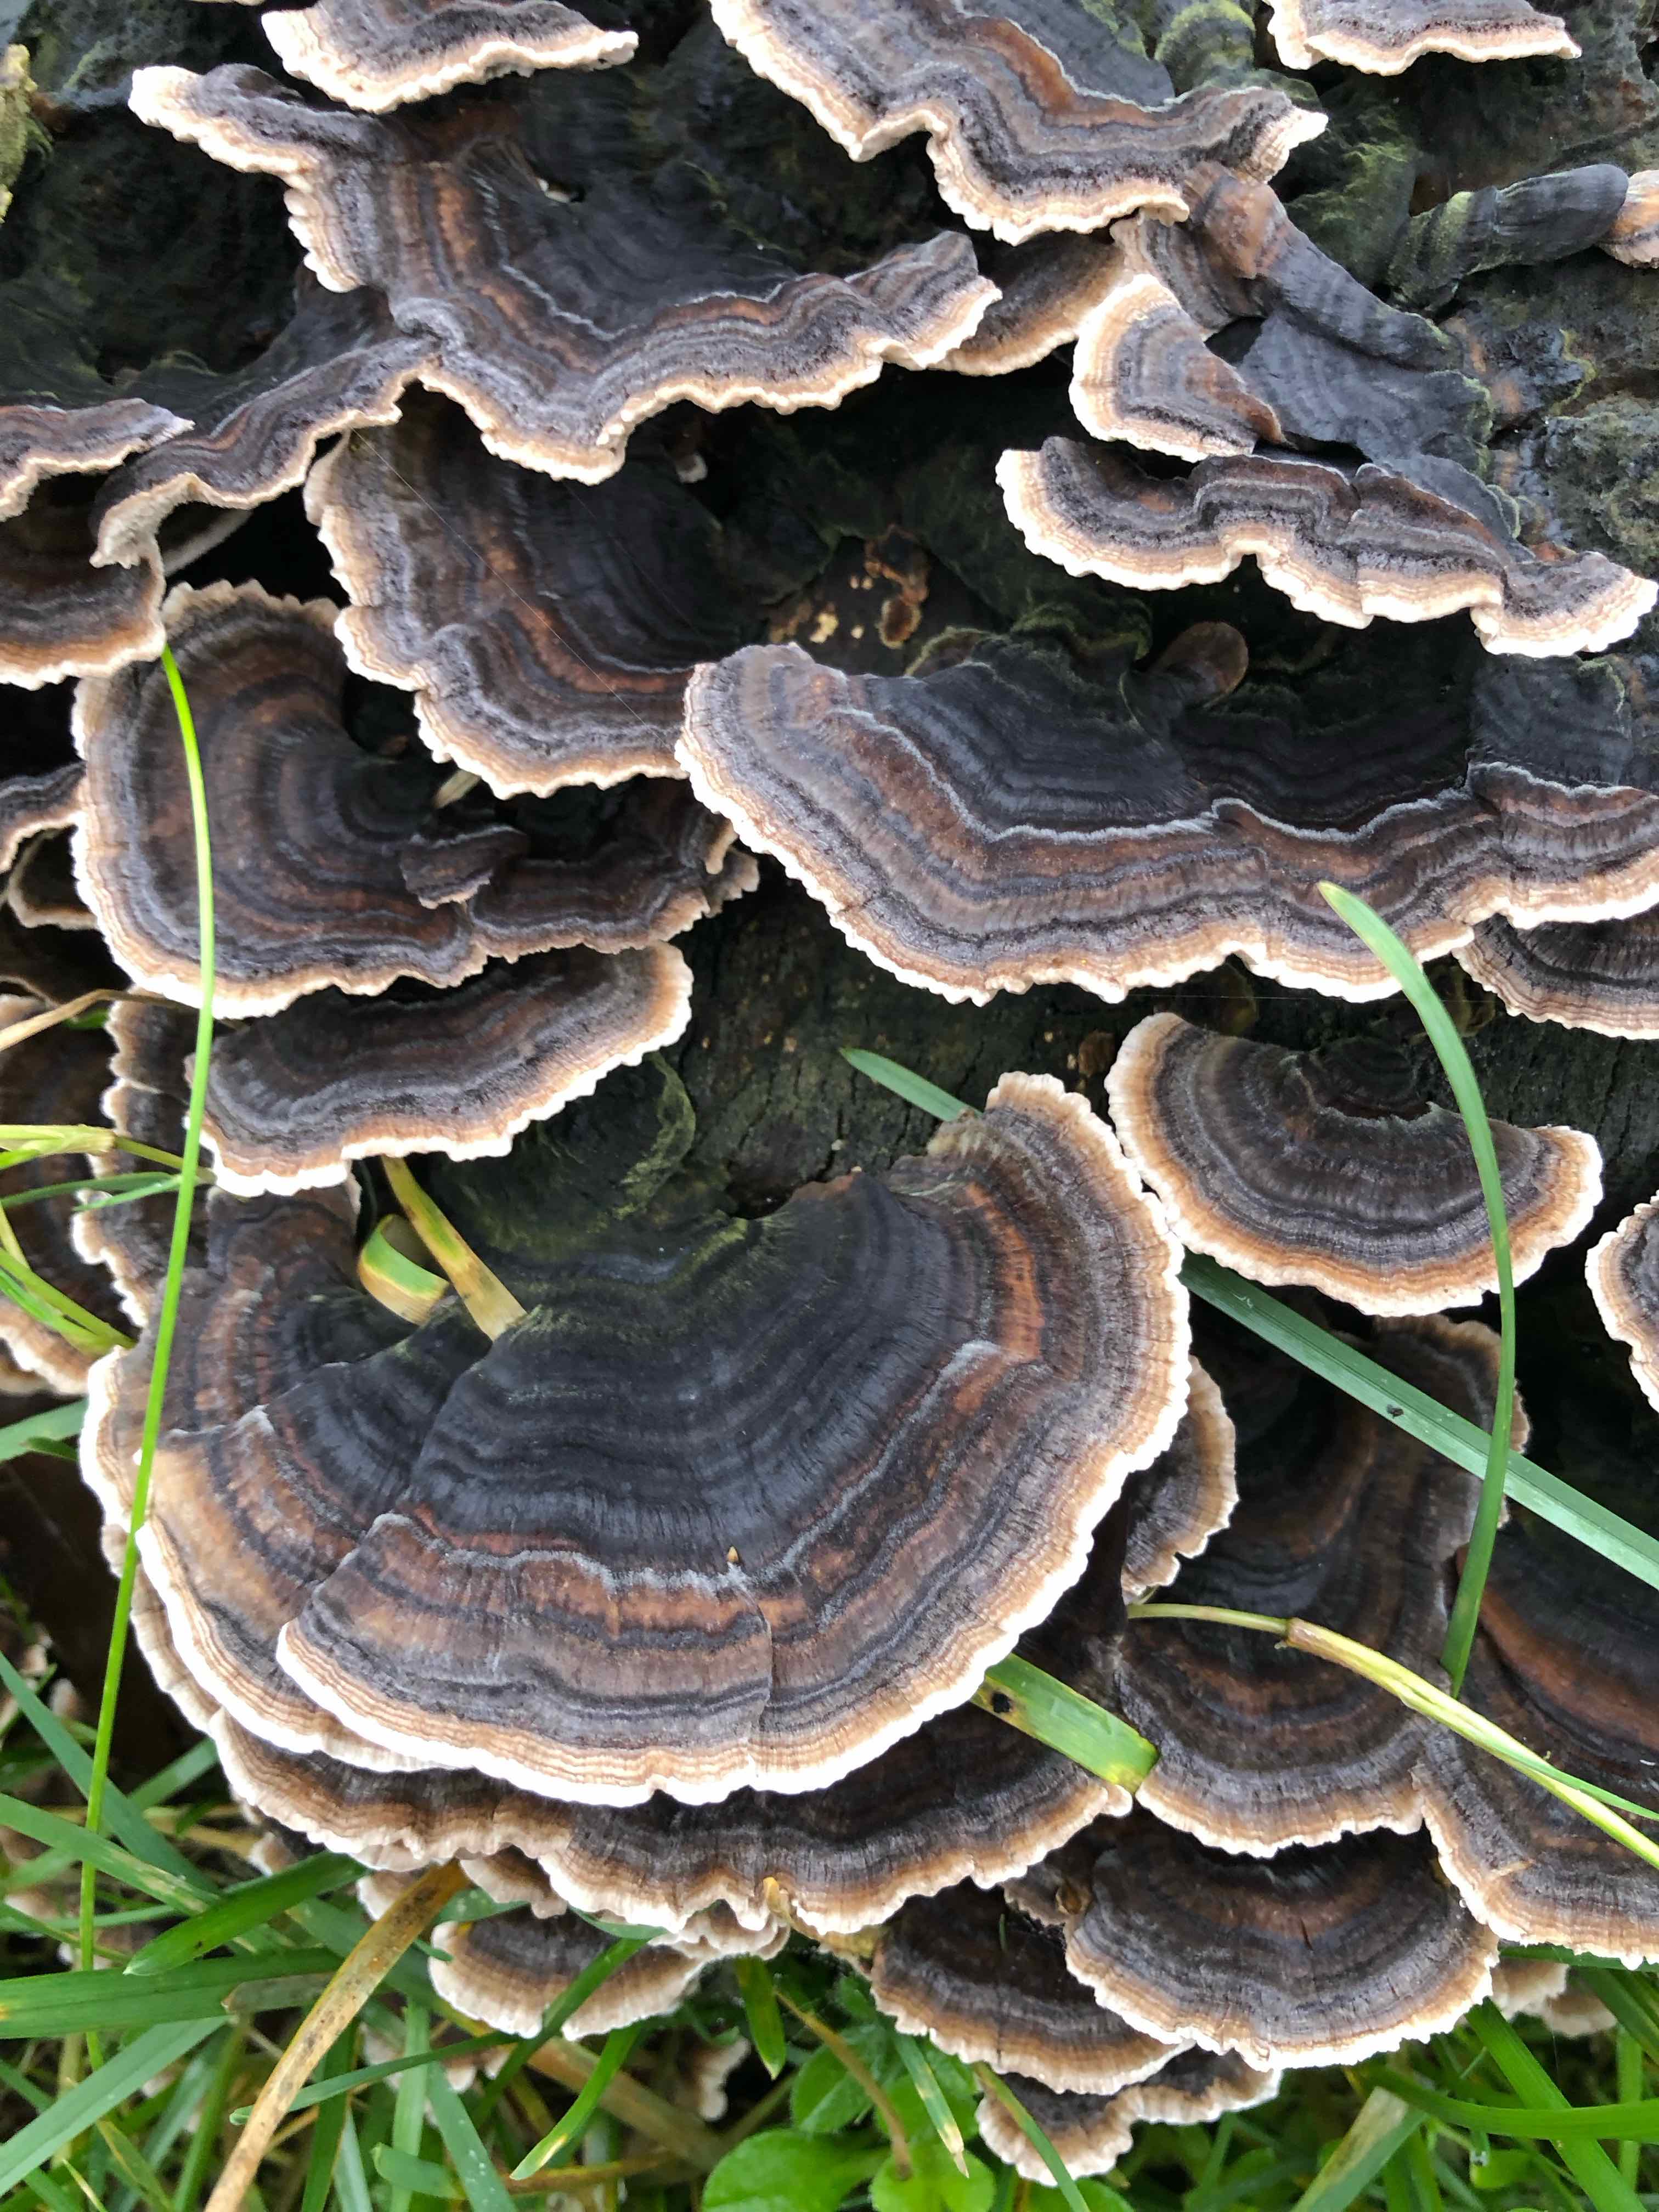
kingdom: Fungi
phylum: Basidiomycota
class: Agaricomycetes
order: Polyporales
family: Polyporaceae
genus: Trametes
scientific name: Trametes versicolor
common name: broget læderporesvamp
